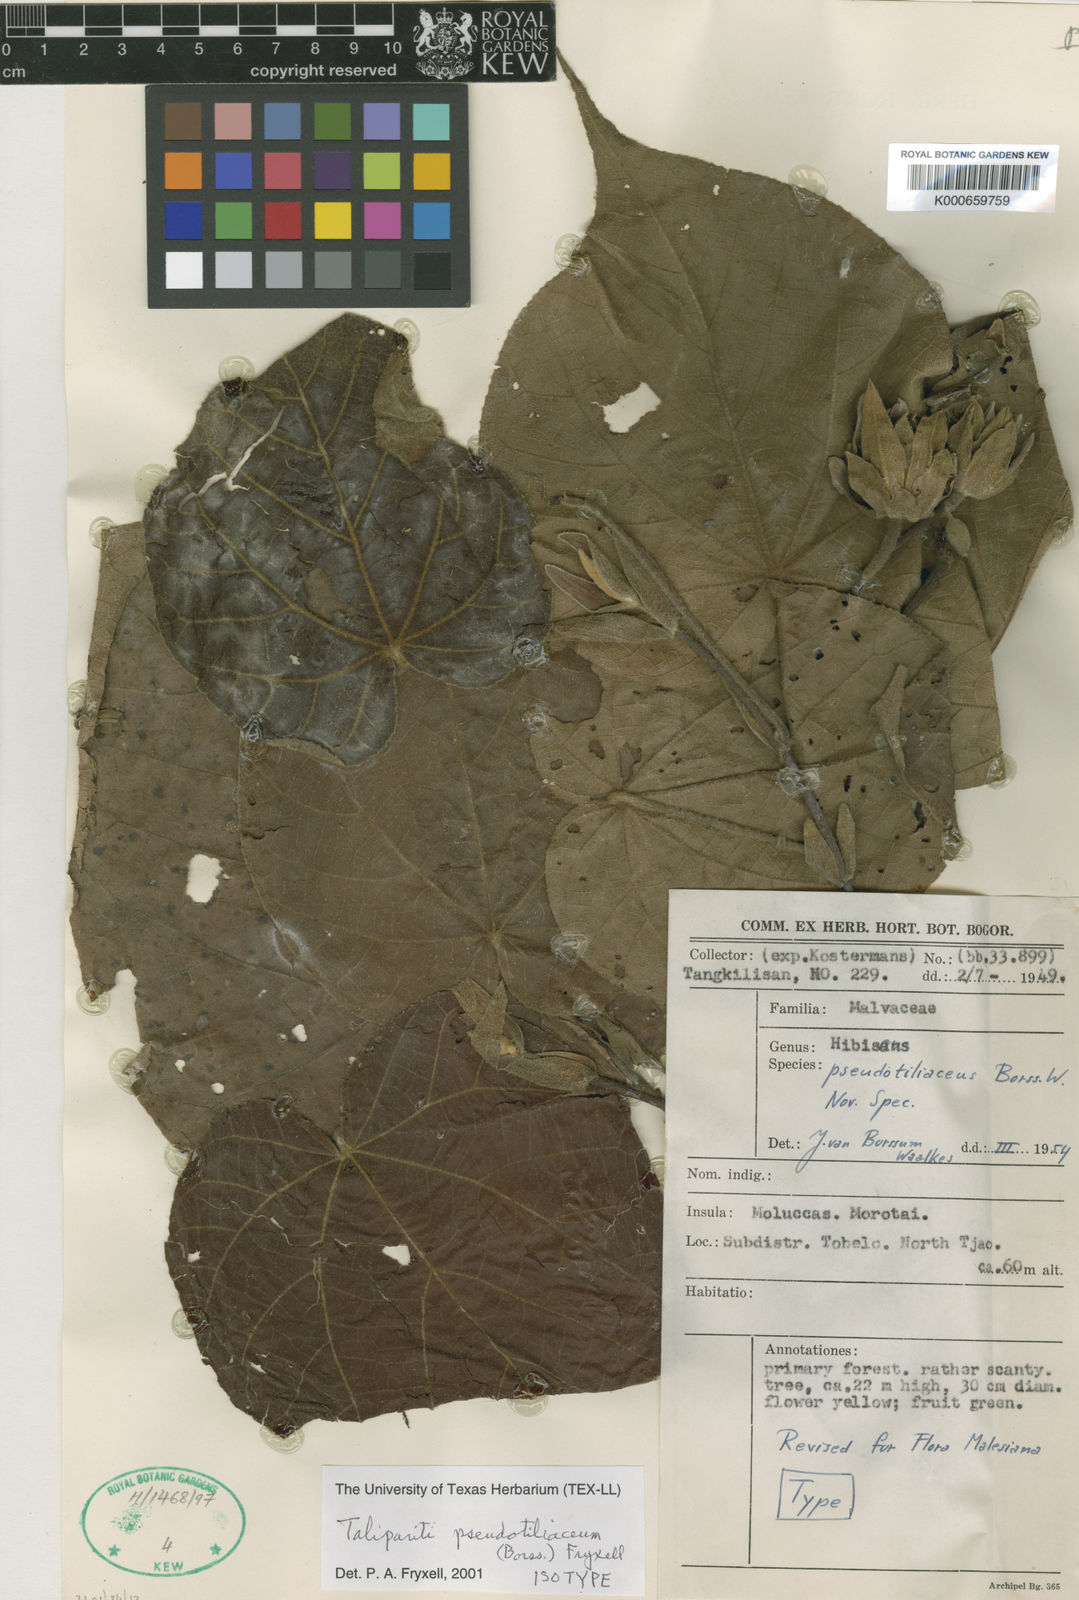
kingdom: Plantae
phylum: Tracheophyta
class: Magnoliopsida
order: Malvales
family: Malvaceae
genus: Talipariti
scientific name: Talipariti pseudotiliaceum
